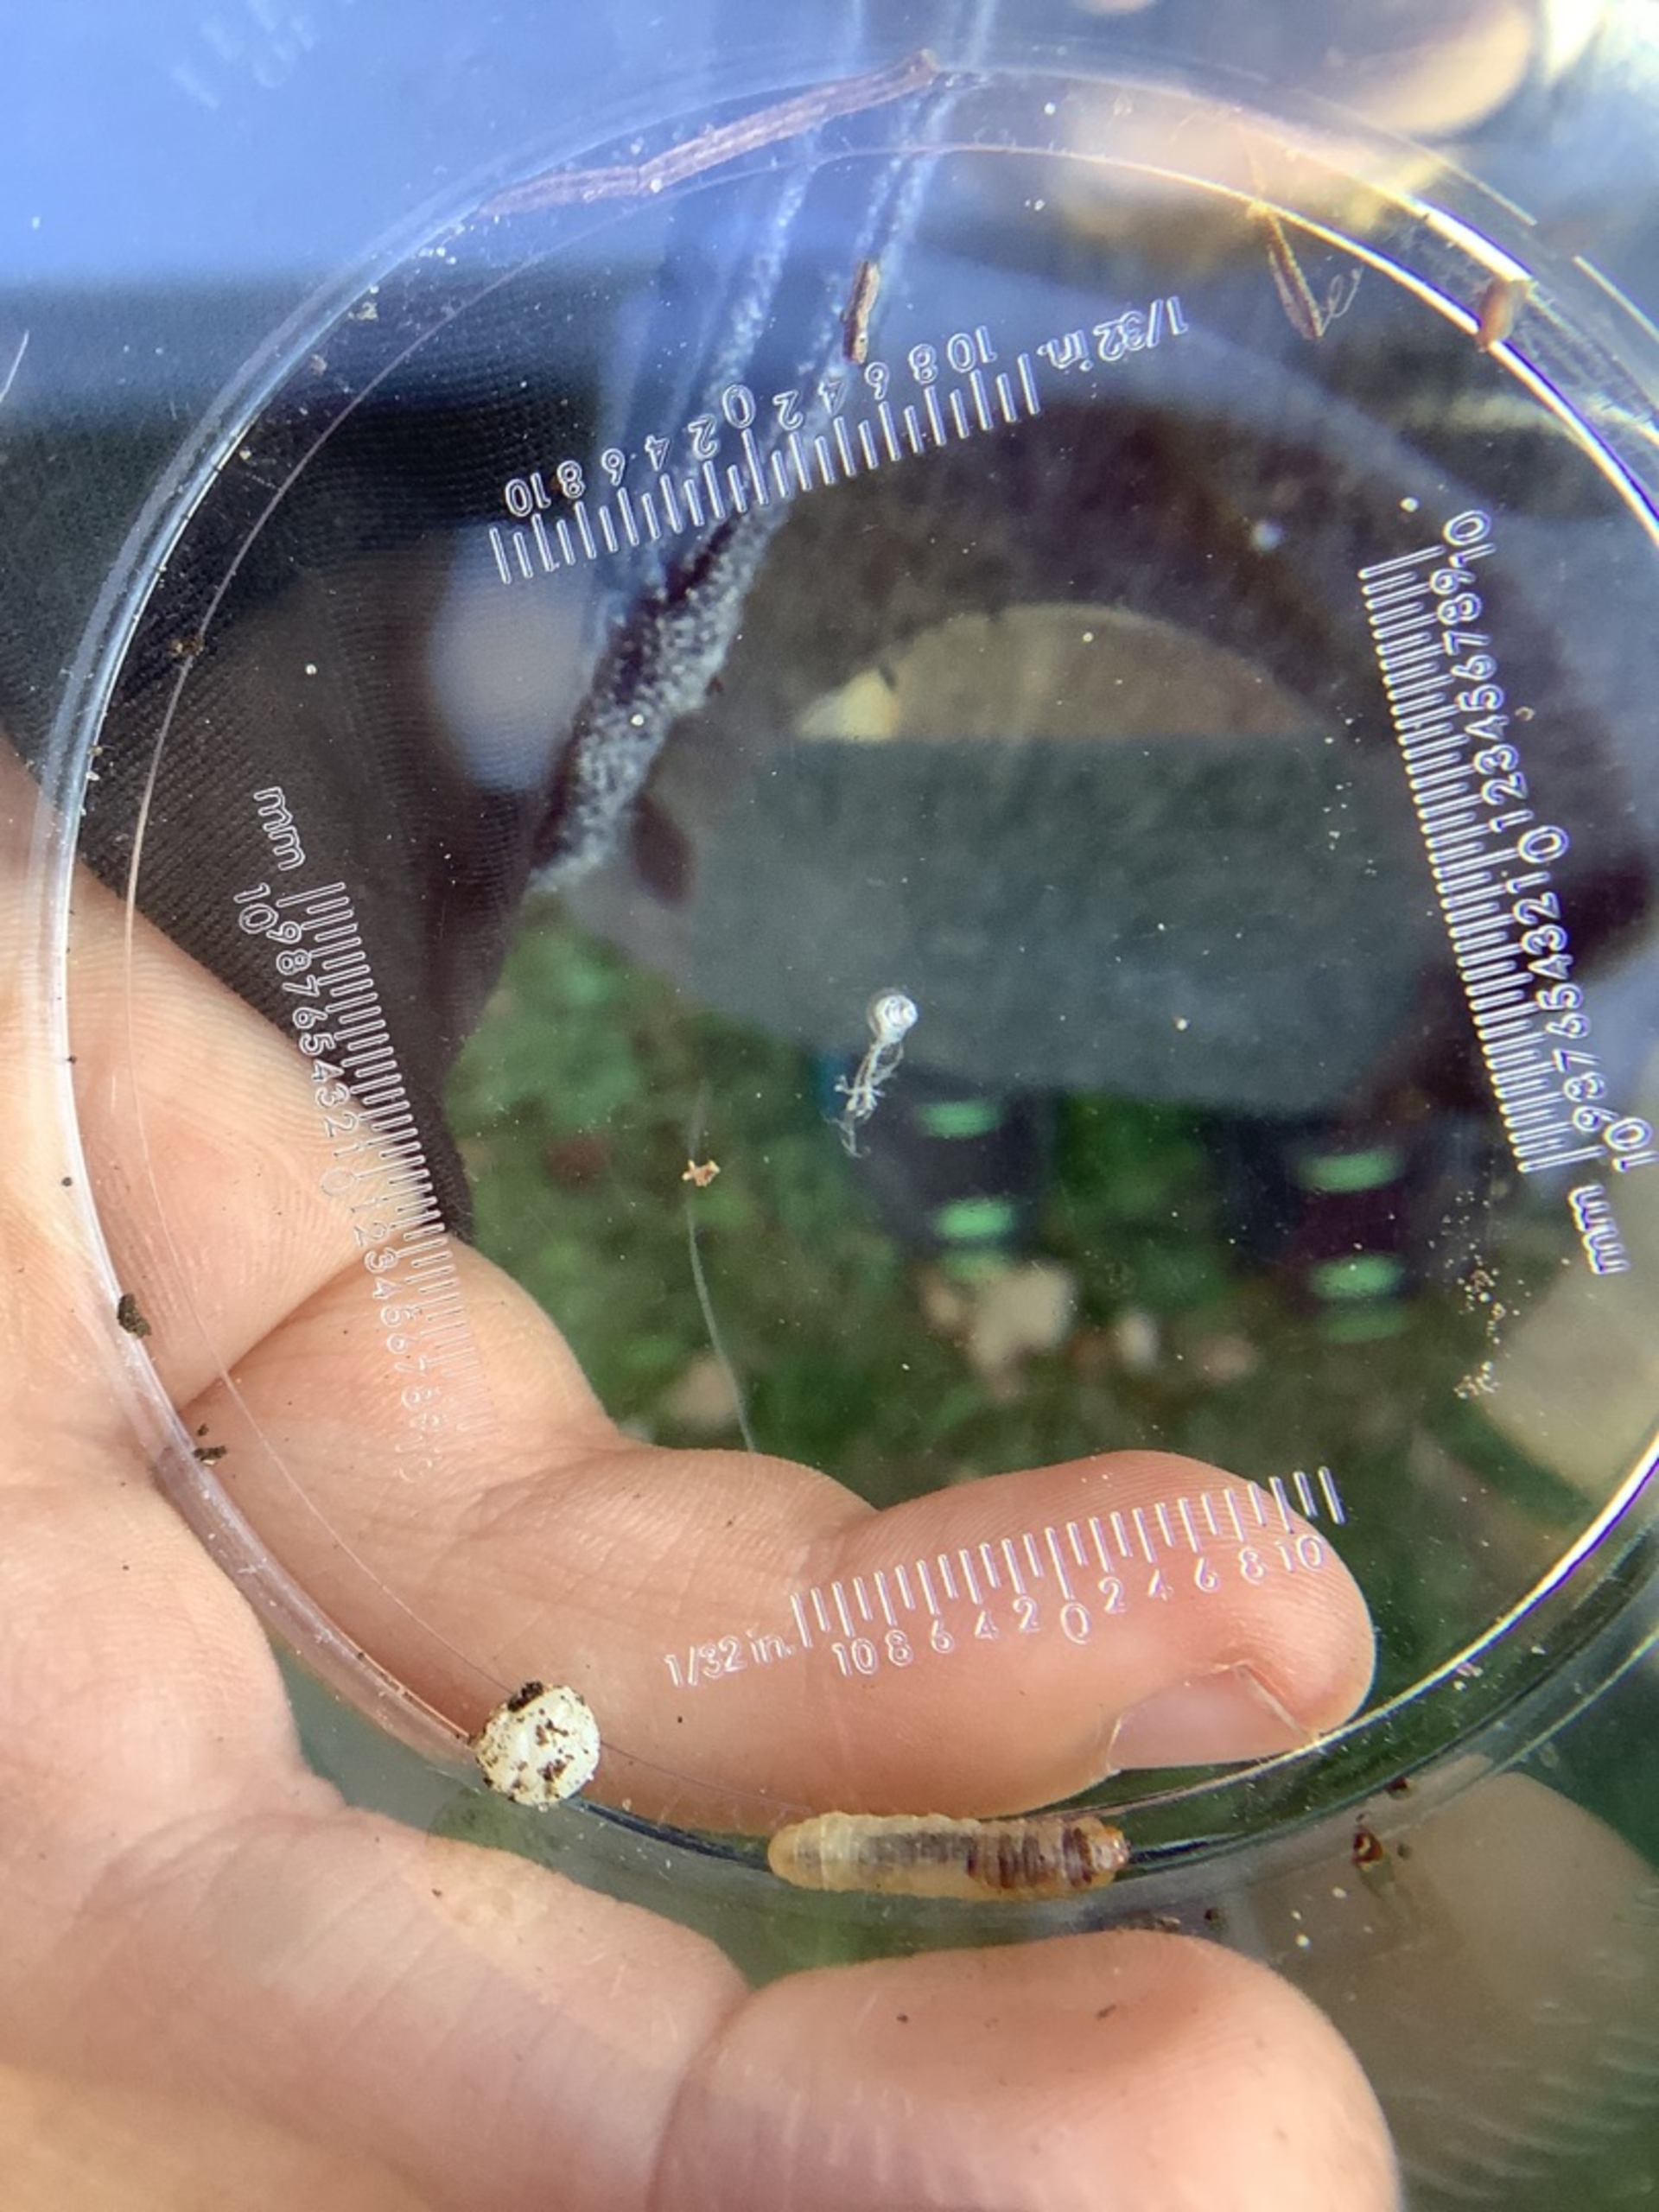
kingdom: Animalia
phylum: Arthropoda
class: Insecta
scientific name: Insecta
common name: Insekter
